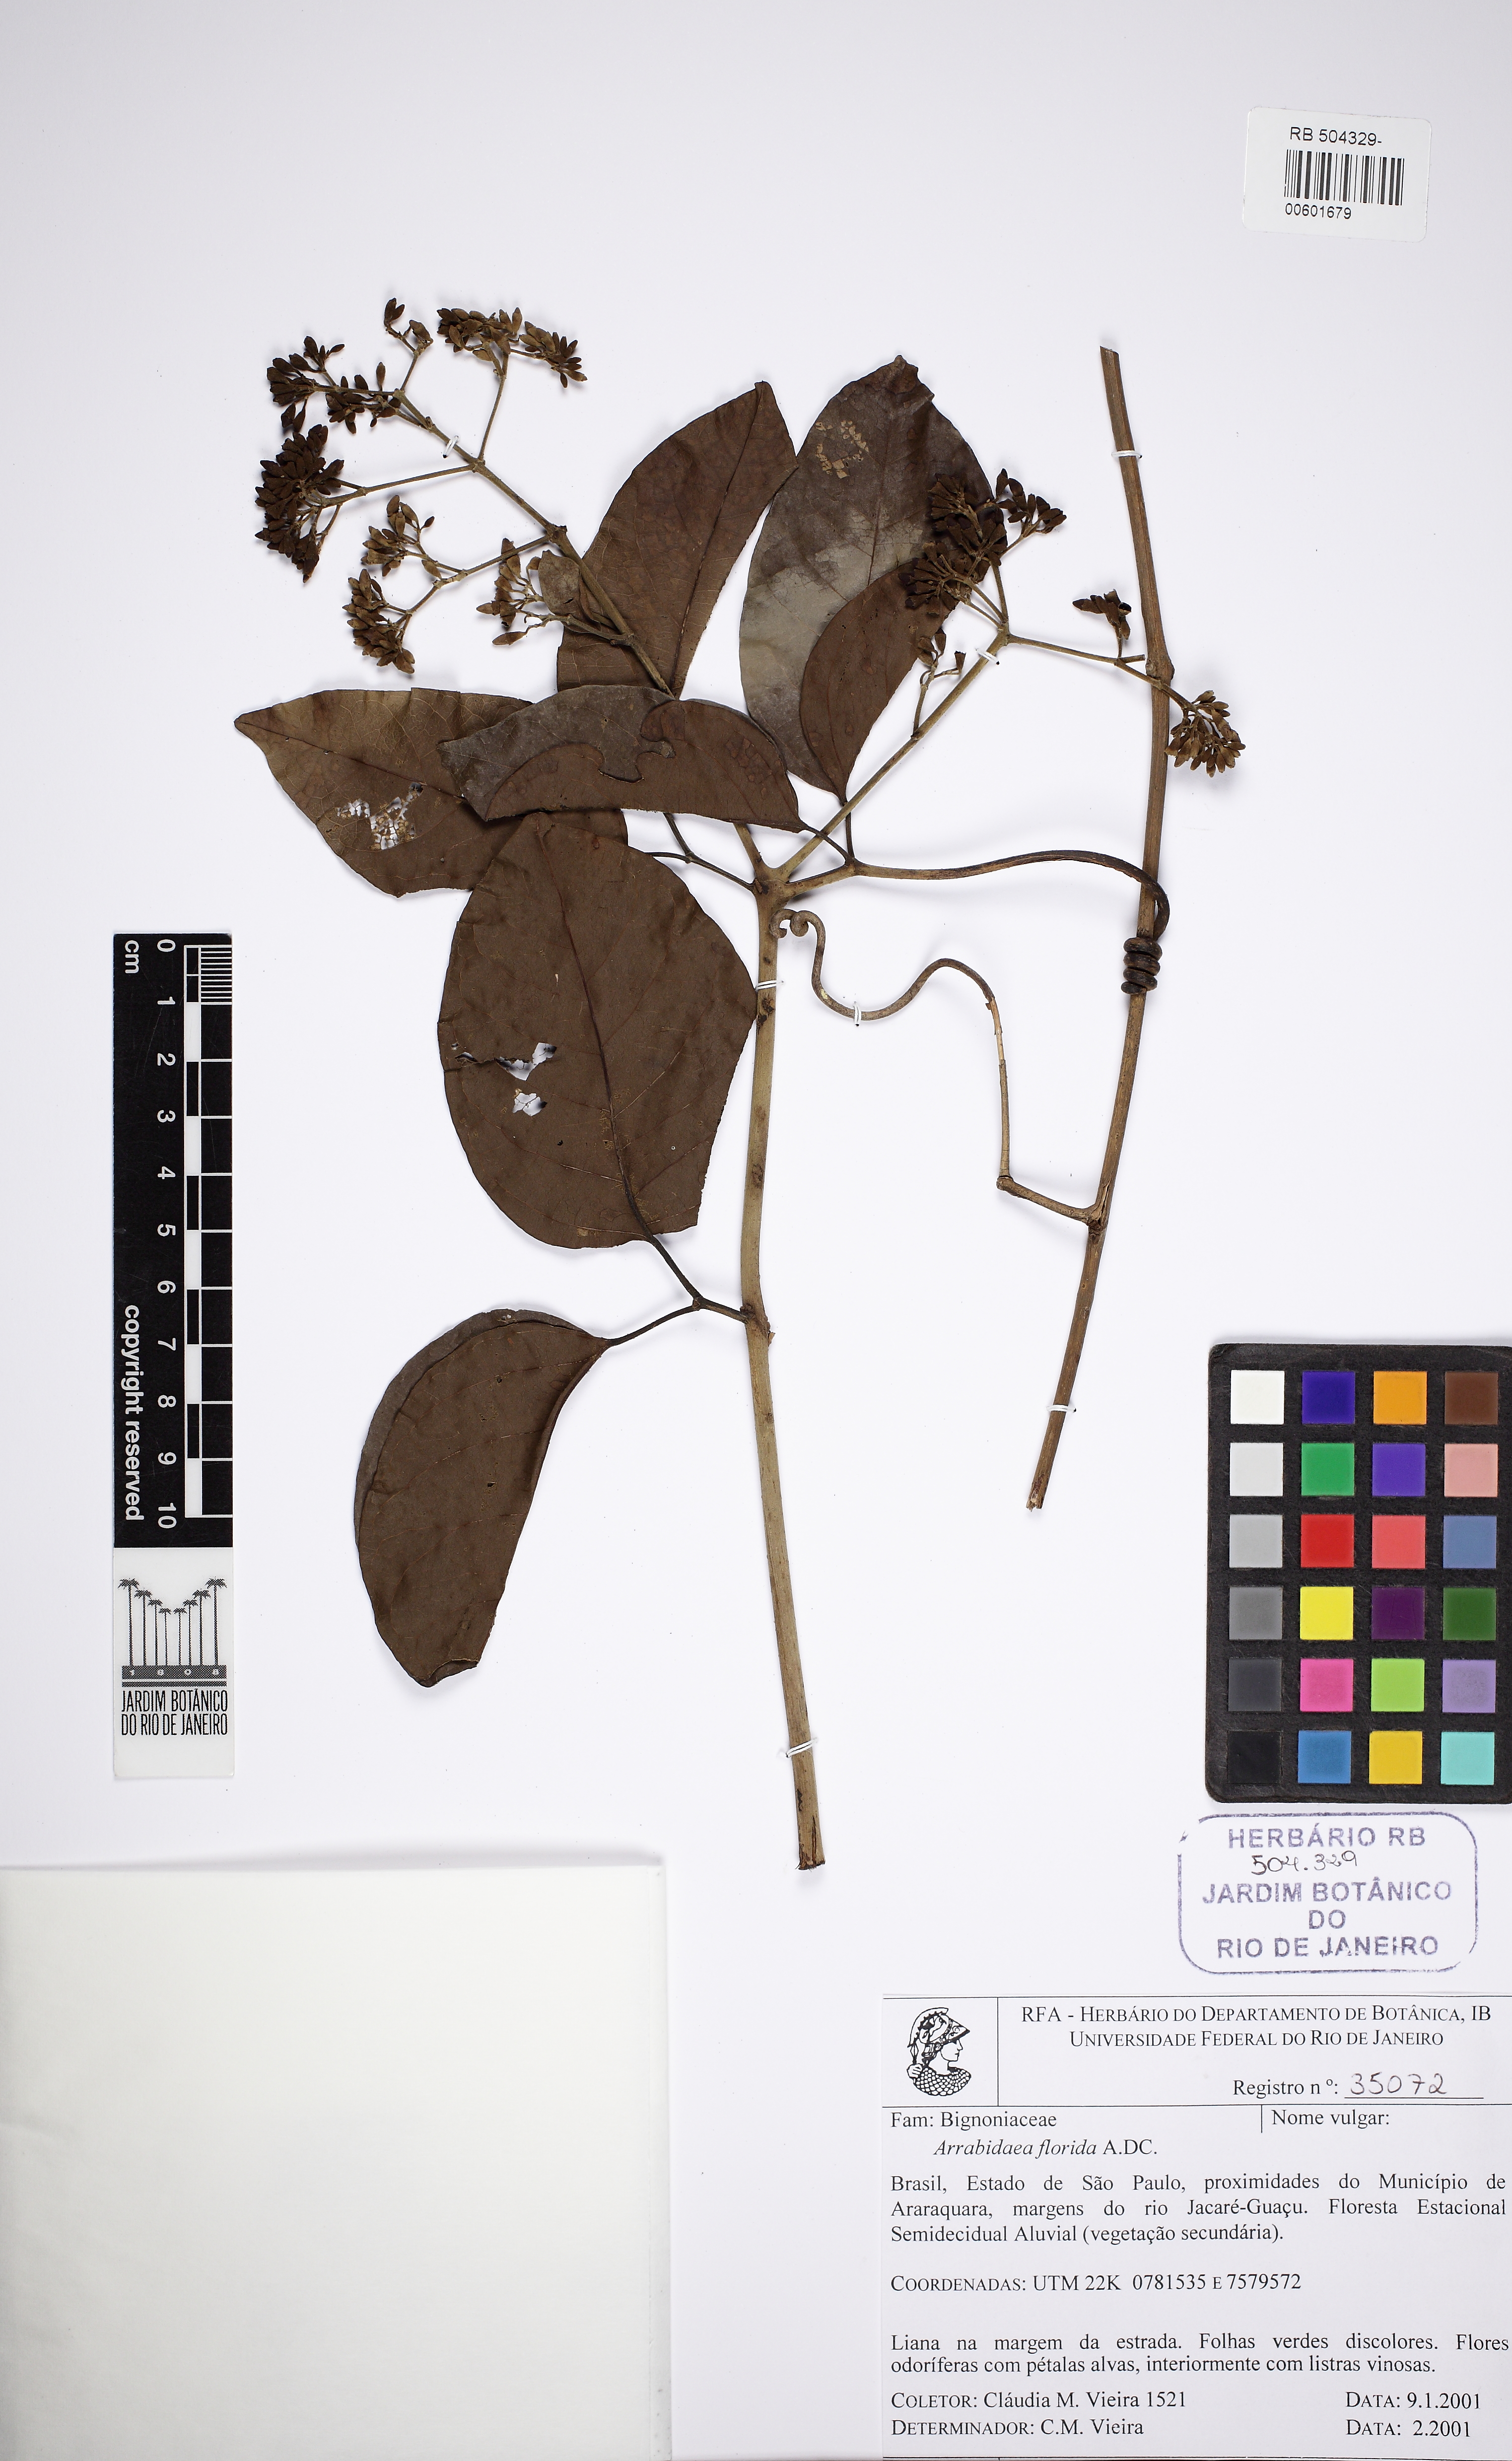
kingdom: Plantae
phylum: Tracheophyta
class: Magnoliopsida
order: Lamiales
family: Bignoniaceae
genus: Fridericia
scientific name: Fridericia florida
